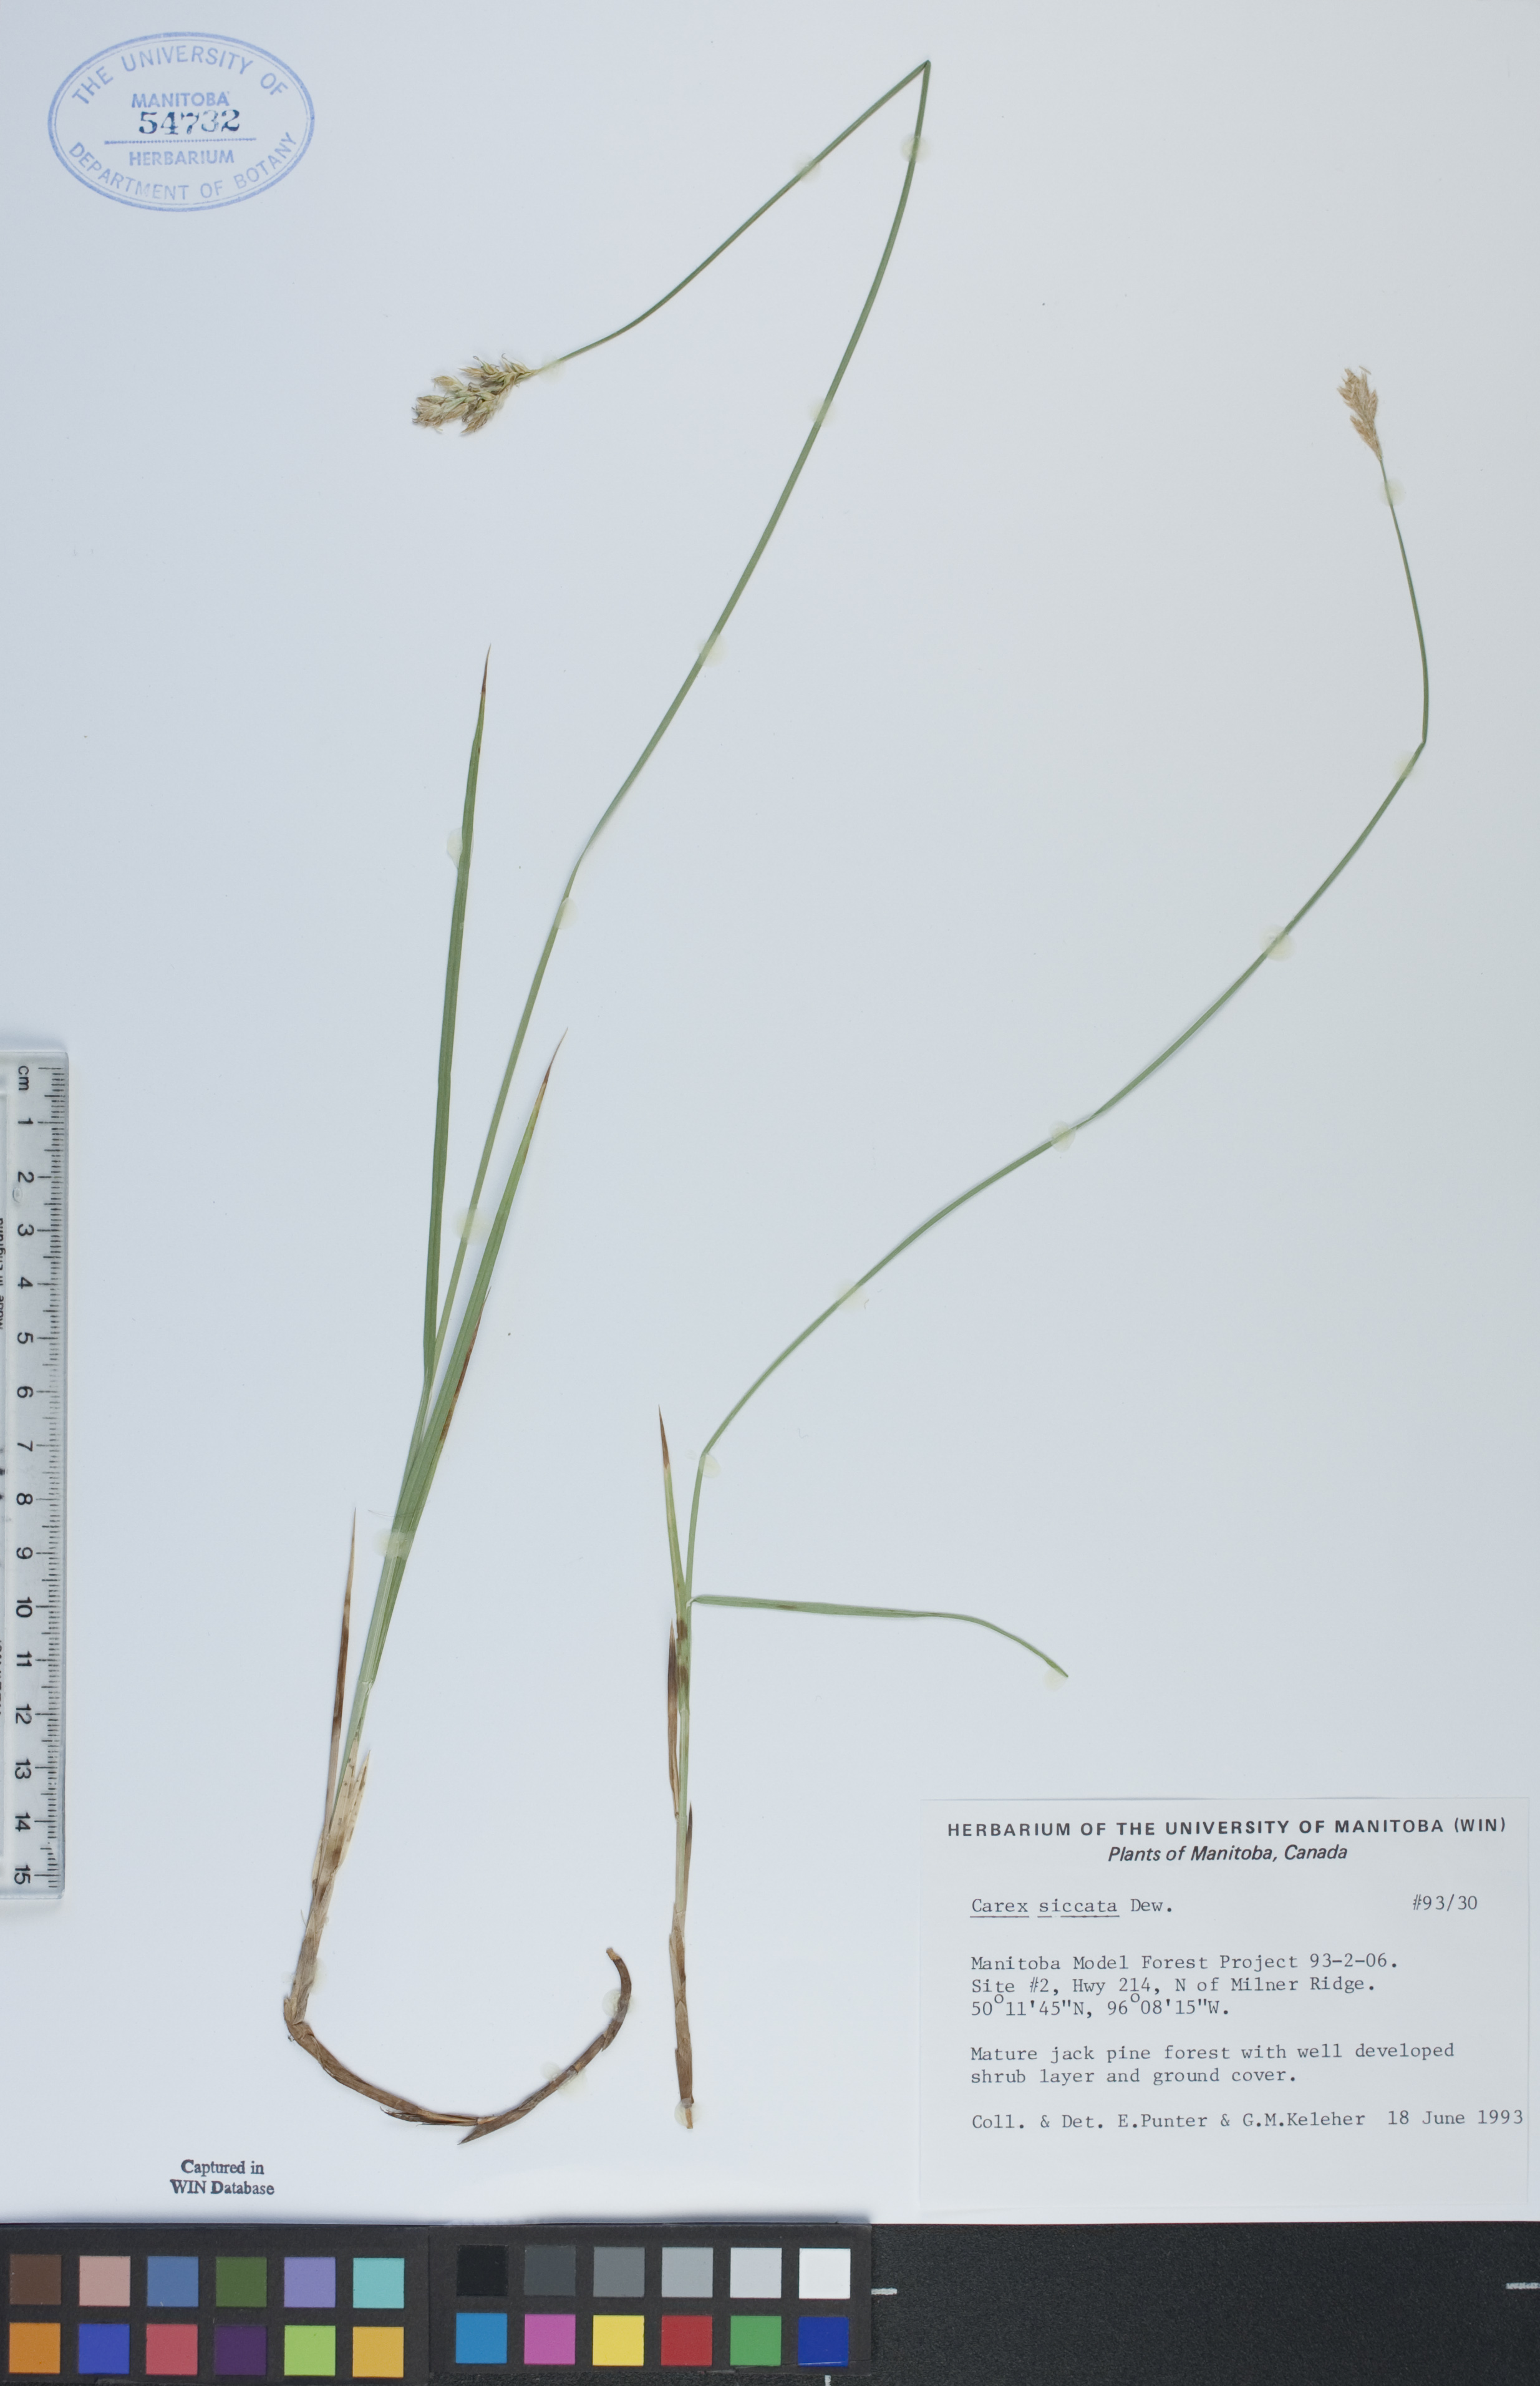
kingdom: Plantae
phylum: Tracheophyta
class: Liliopsida
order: Poales
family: Cyperaceae
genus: Carex
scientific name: Carex siccata
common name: Dry sedge
